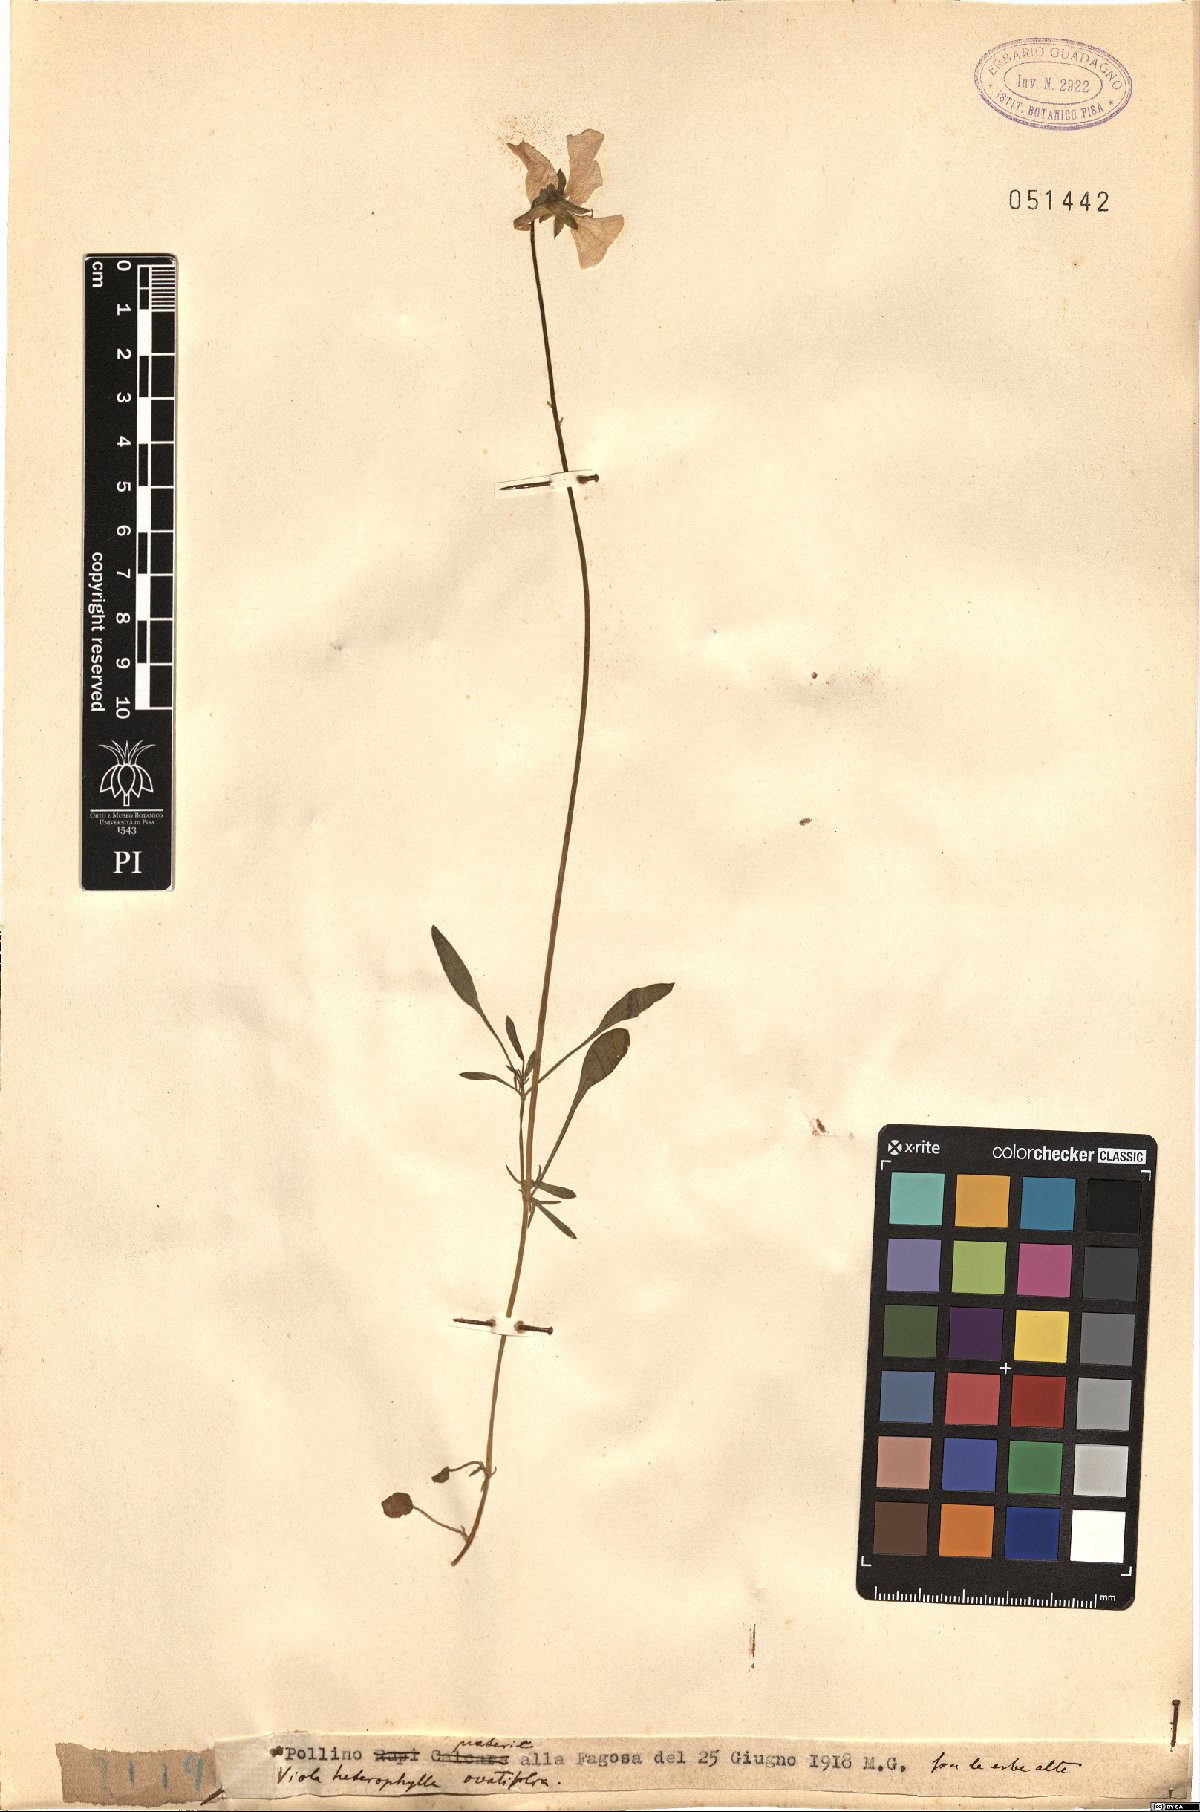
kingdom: Plantae
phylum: Tracheophyta
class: Magnoliopsida
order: Malpighiales
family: Violaceae
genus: Viola
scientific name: Viola heterophylla
